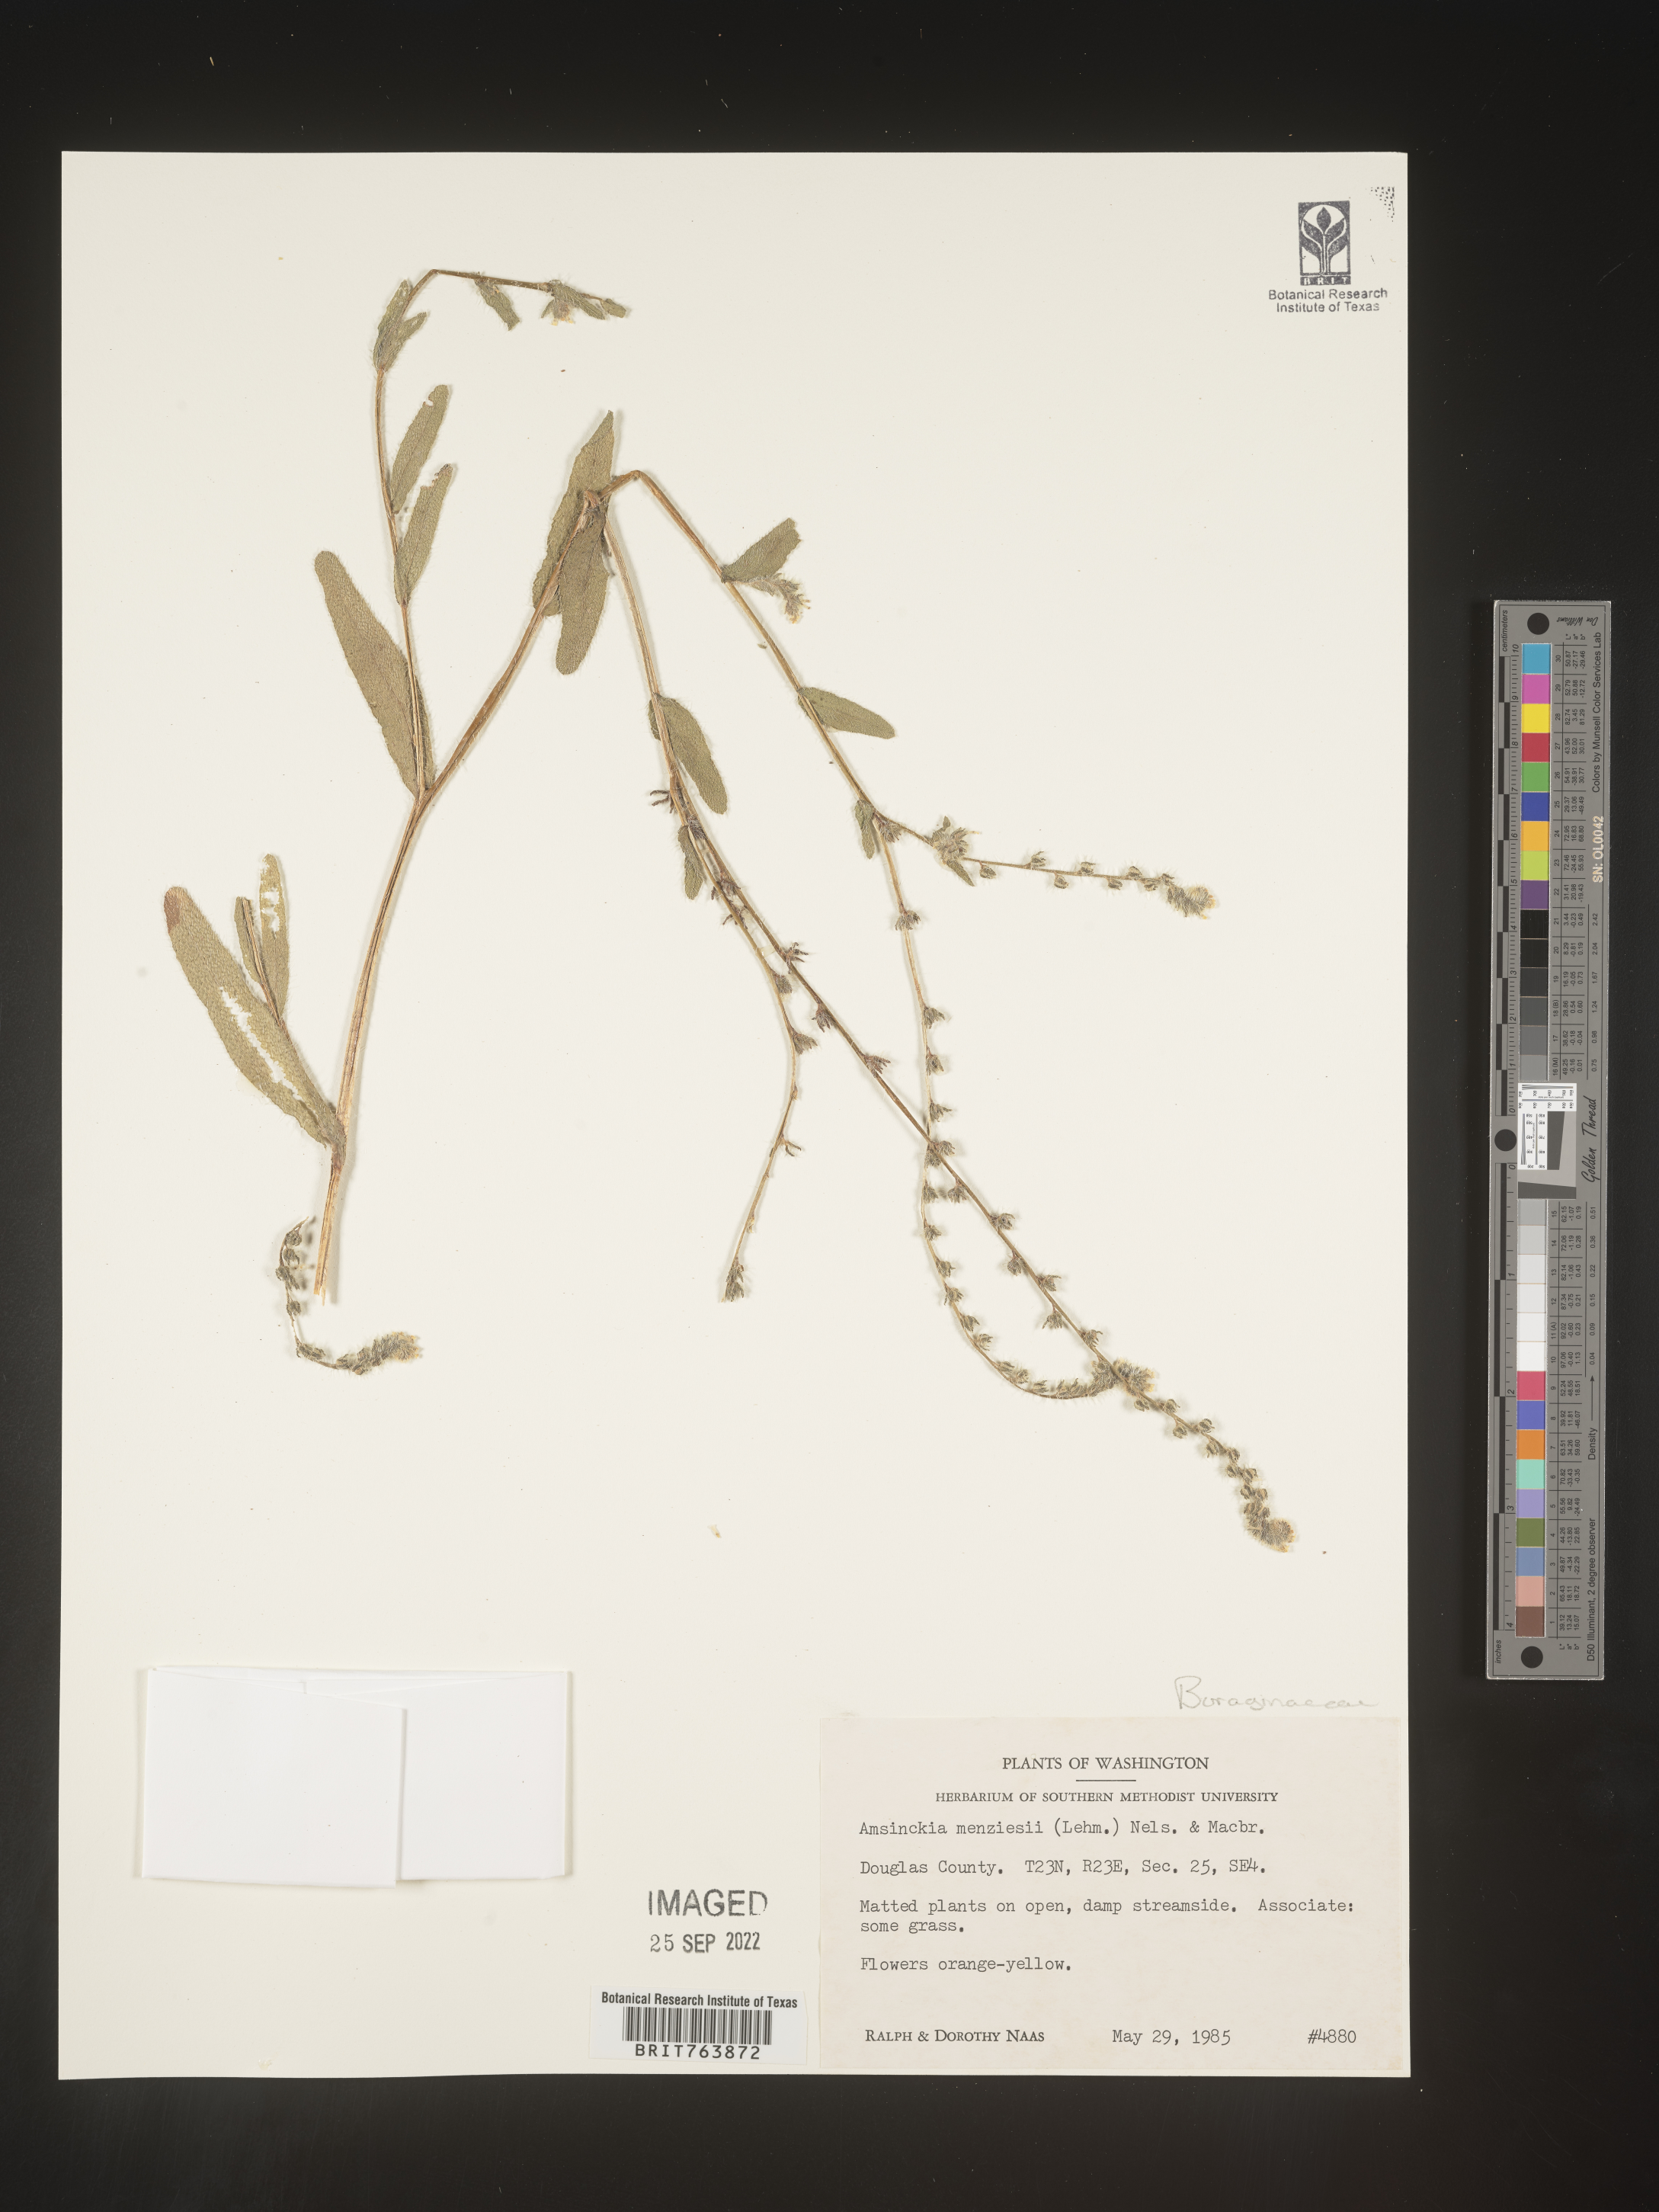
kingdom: Plantae
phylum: Tracheophyta
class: Magnoliopsida
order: Boraginales
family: Boraginaceae
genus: Amsinckia
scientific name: Amsinckia menziesii
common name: Menzies' fiddleneck
